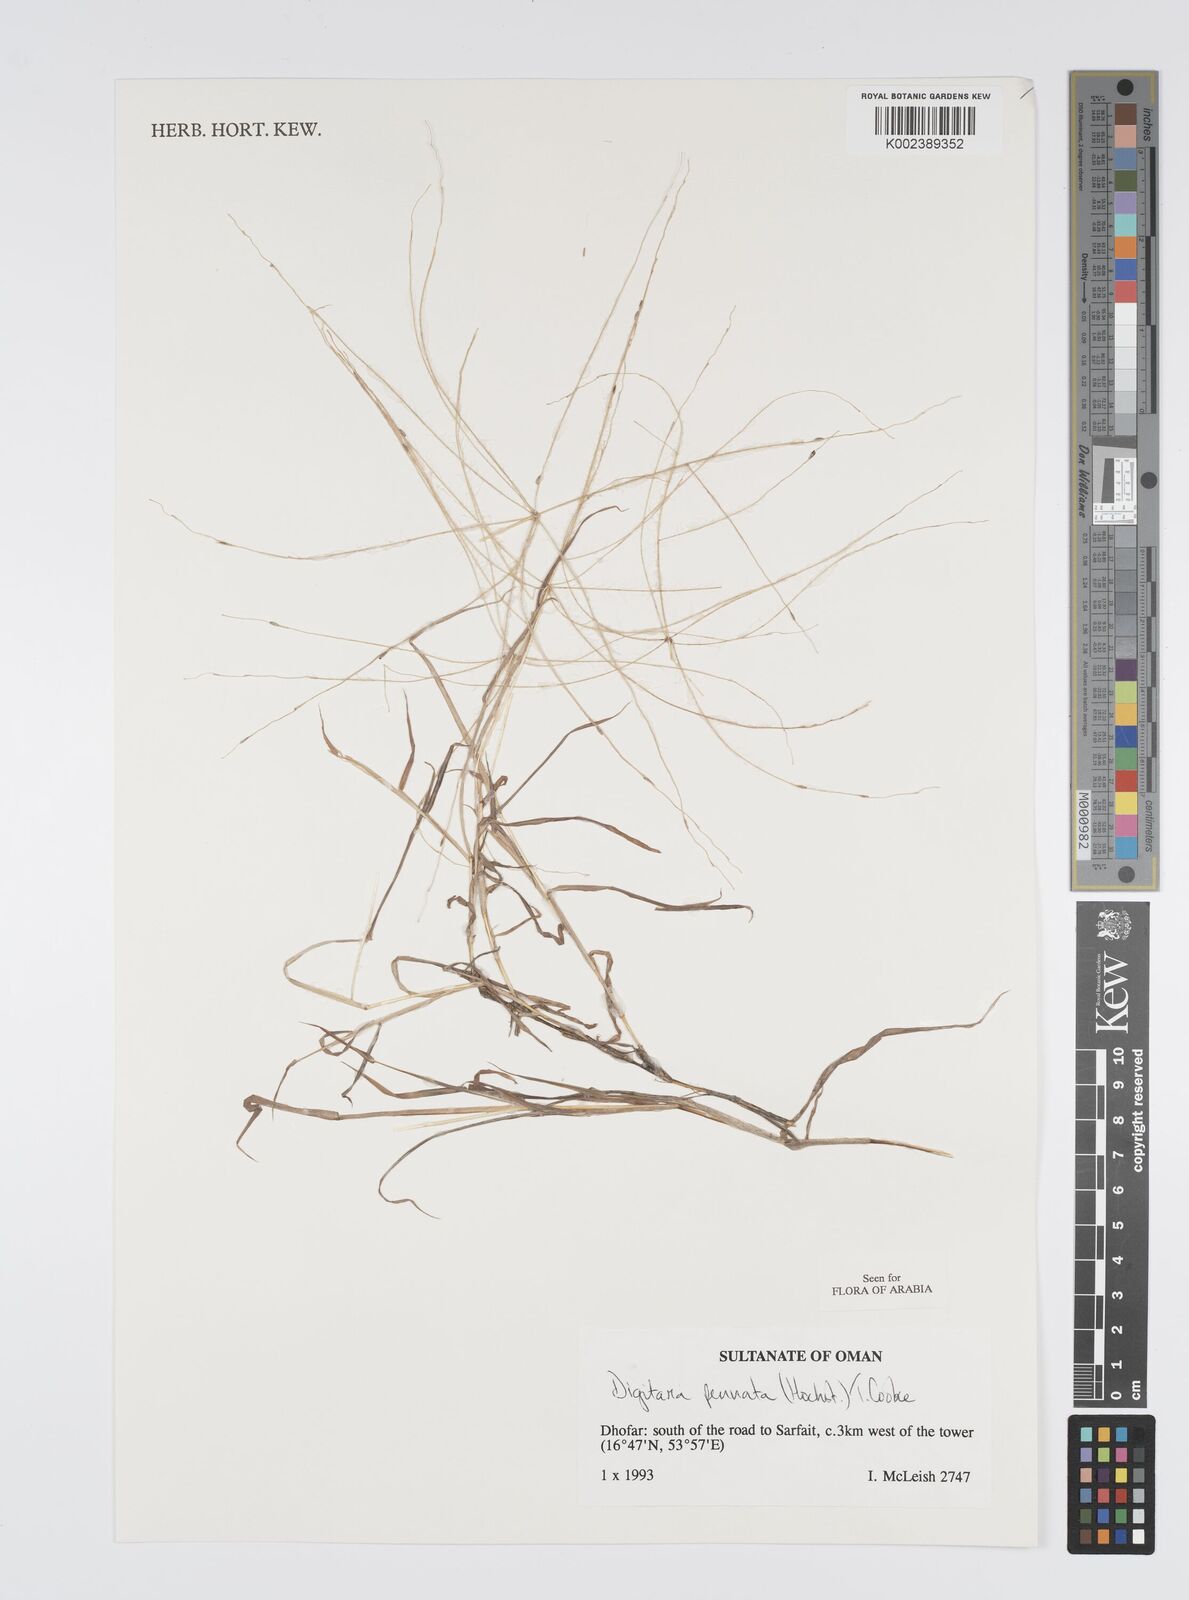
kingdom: Plantae
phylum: Tracheophyta
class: Liliopsida
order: Poales
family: Poaceae
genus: Digitaria
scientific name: Digitaria pennata
